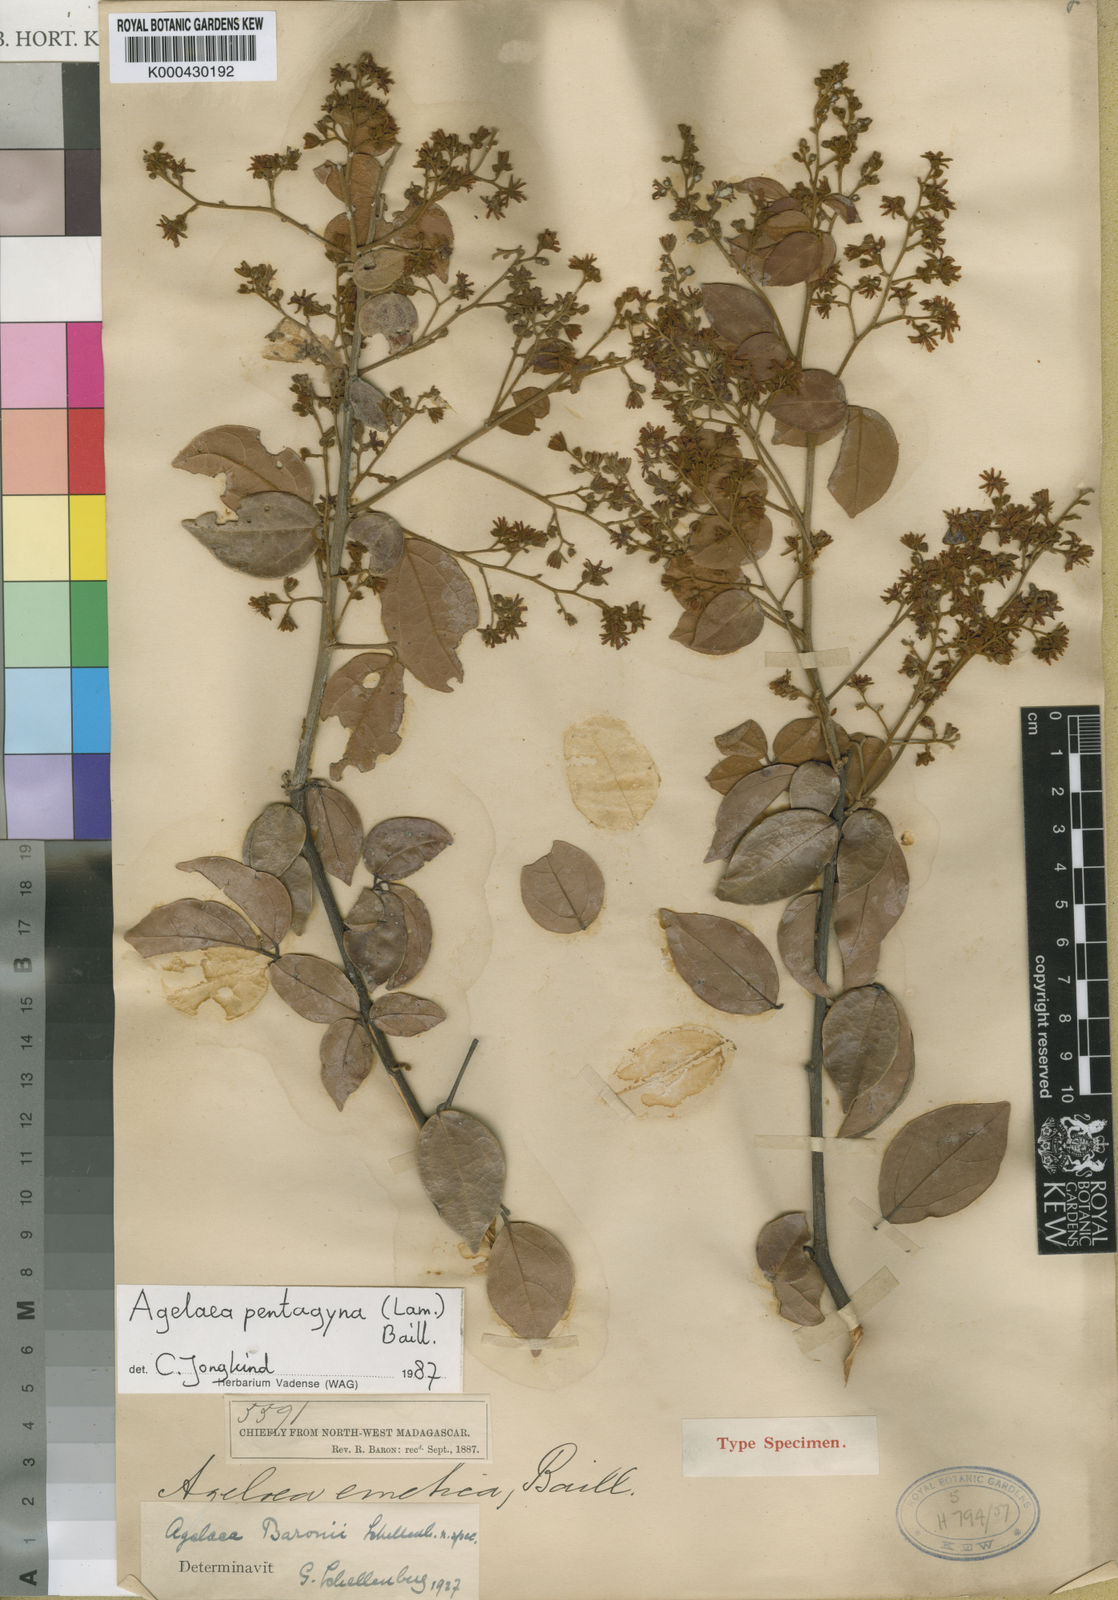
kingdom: Plantae
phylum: Tracheophyta
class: Magnoliopsida
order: Oxalidales
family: Connaraceae
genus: Agelaea
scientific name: Agelaea pentagyna
